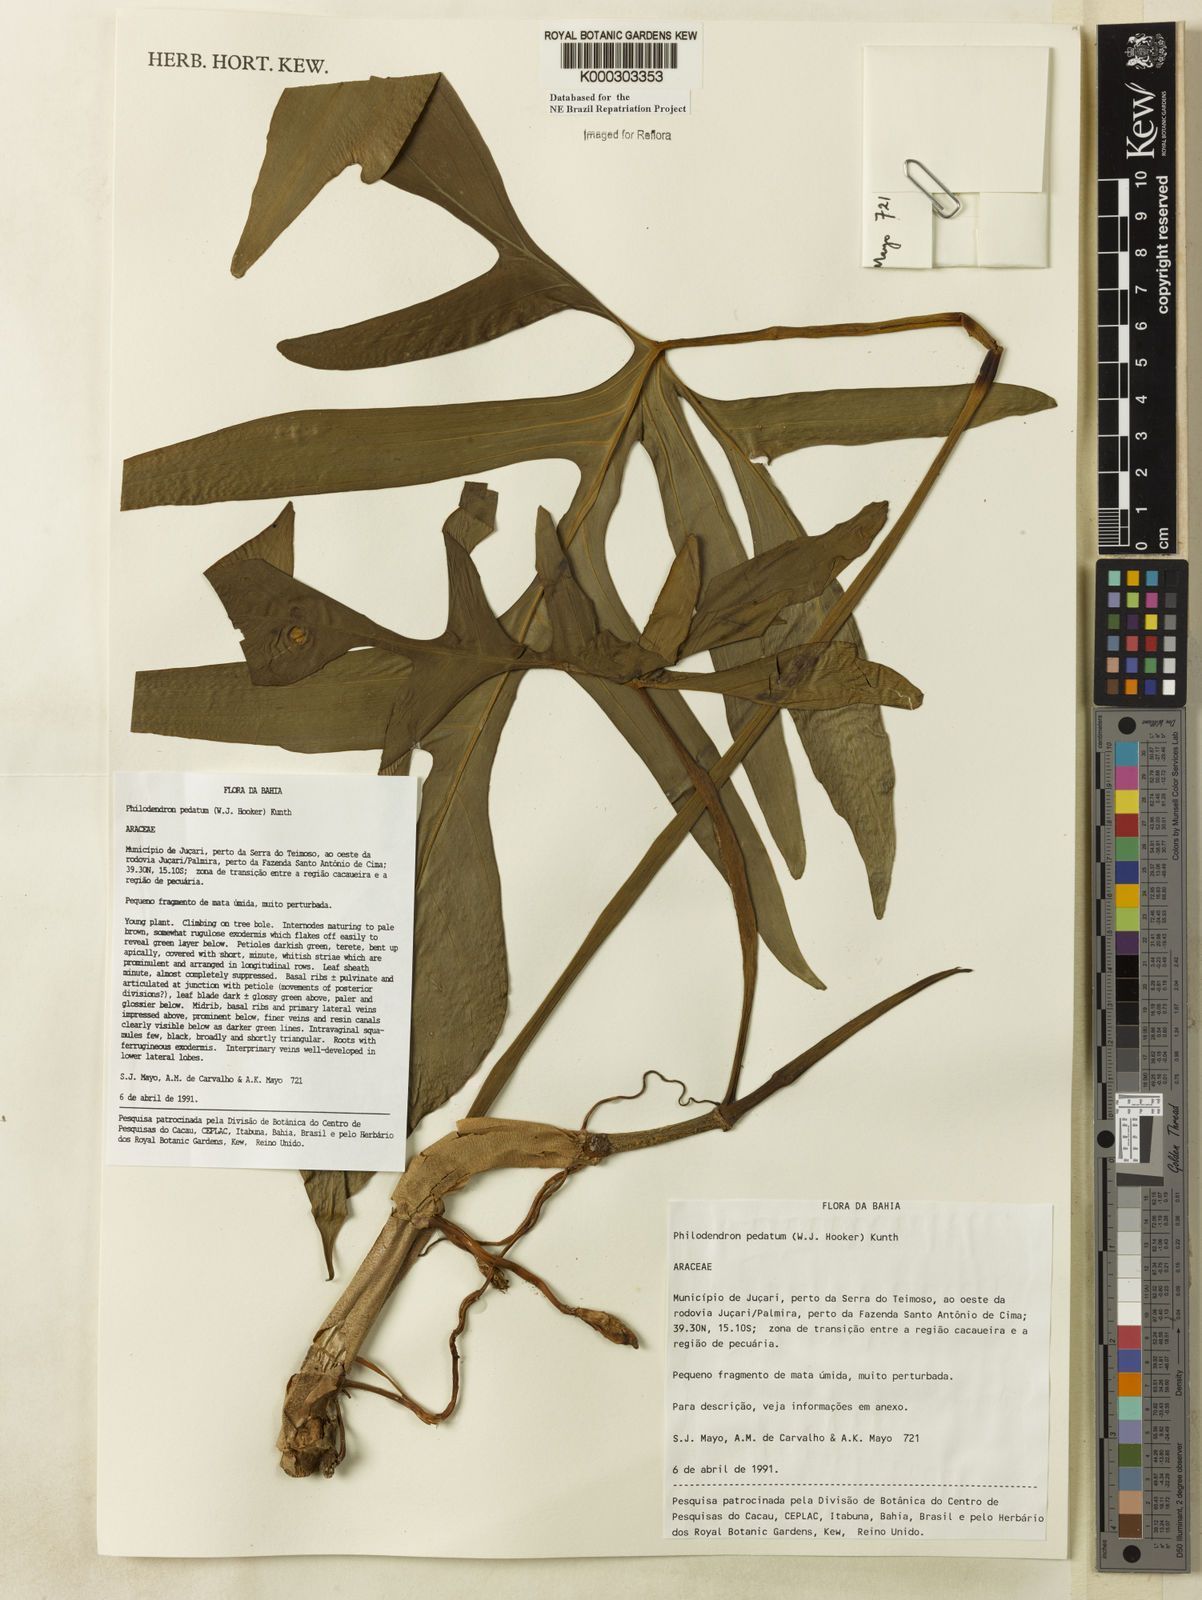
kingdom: Plantae
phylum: Tracheophyta
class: Liliopsida
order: Alismatales
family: Araceae
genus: Philodendron
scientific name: Philodendron pedatum
